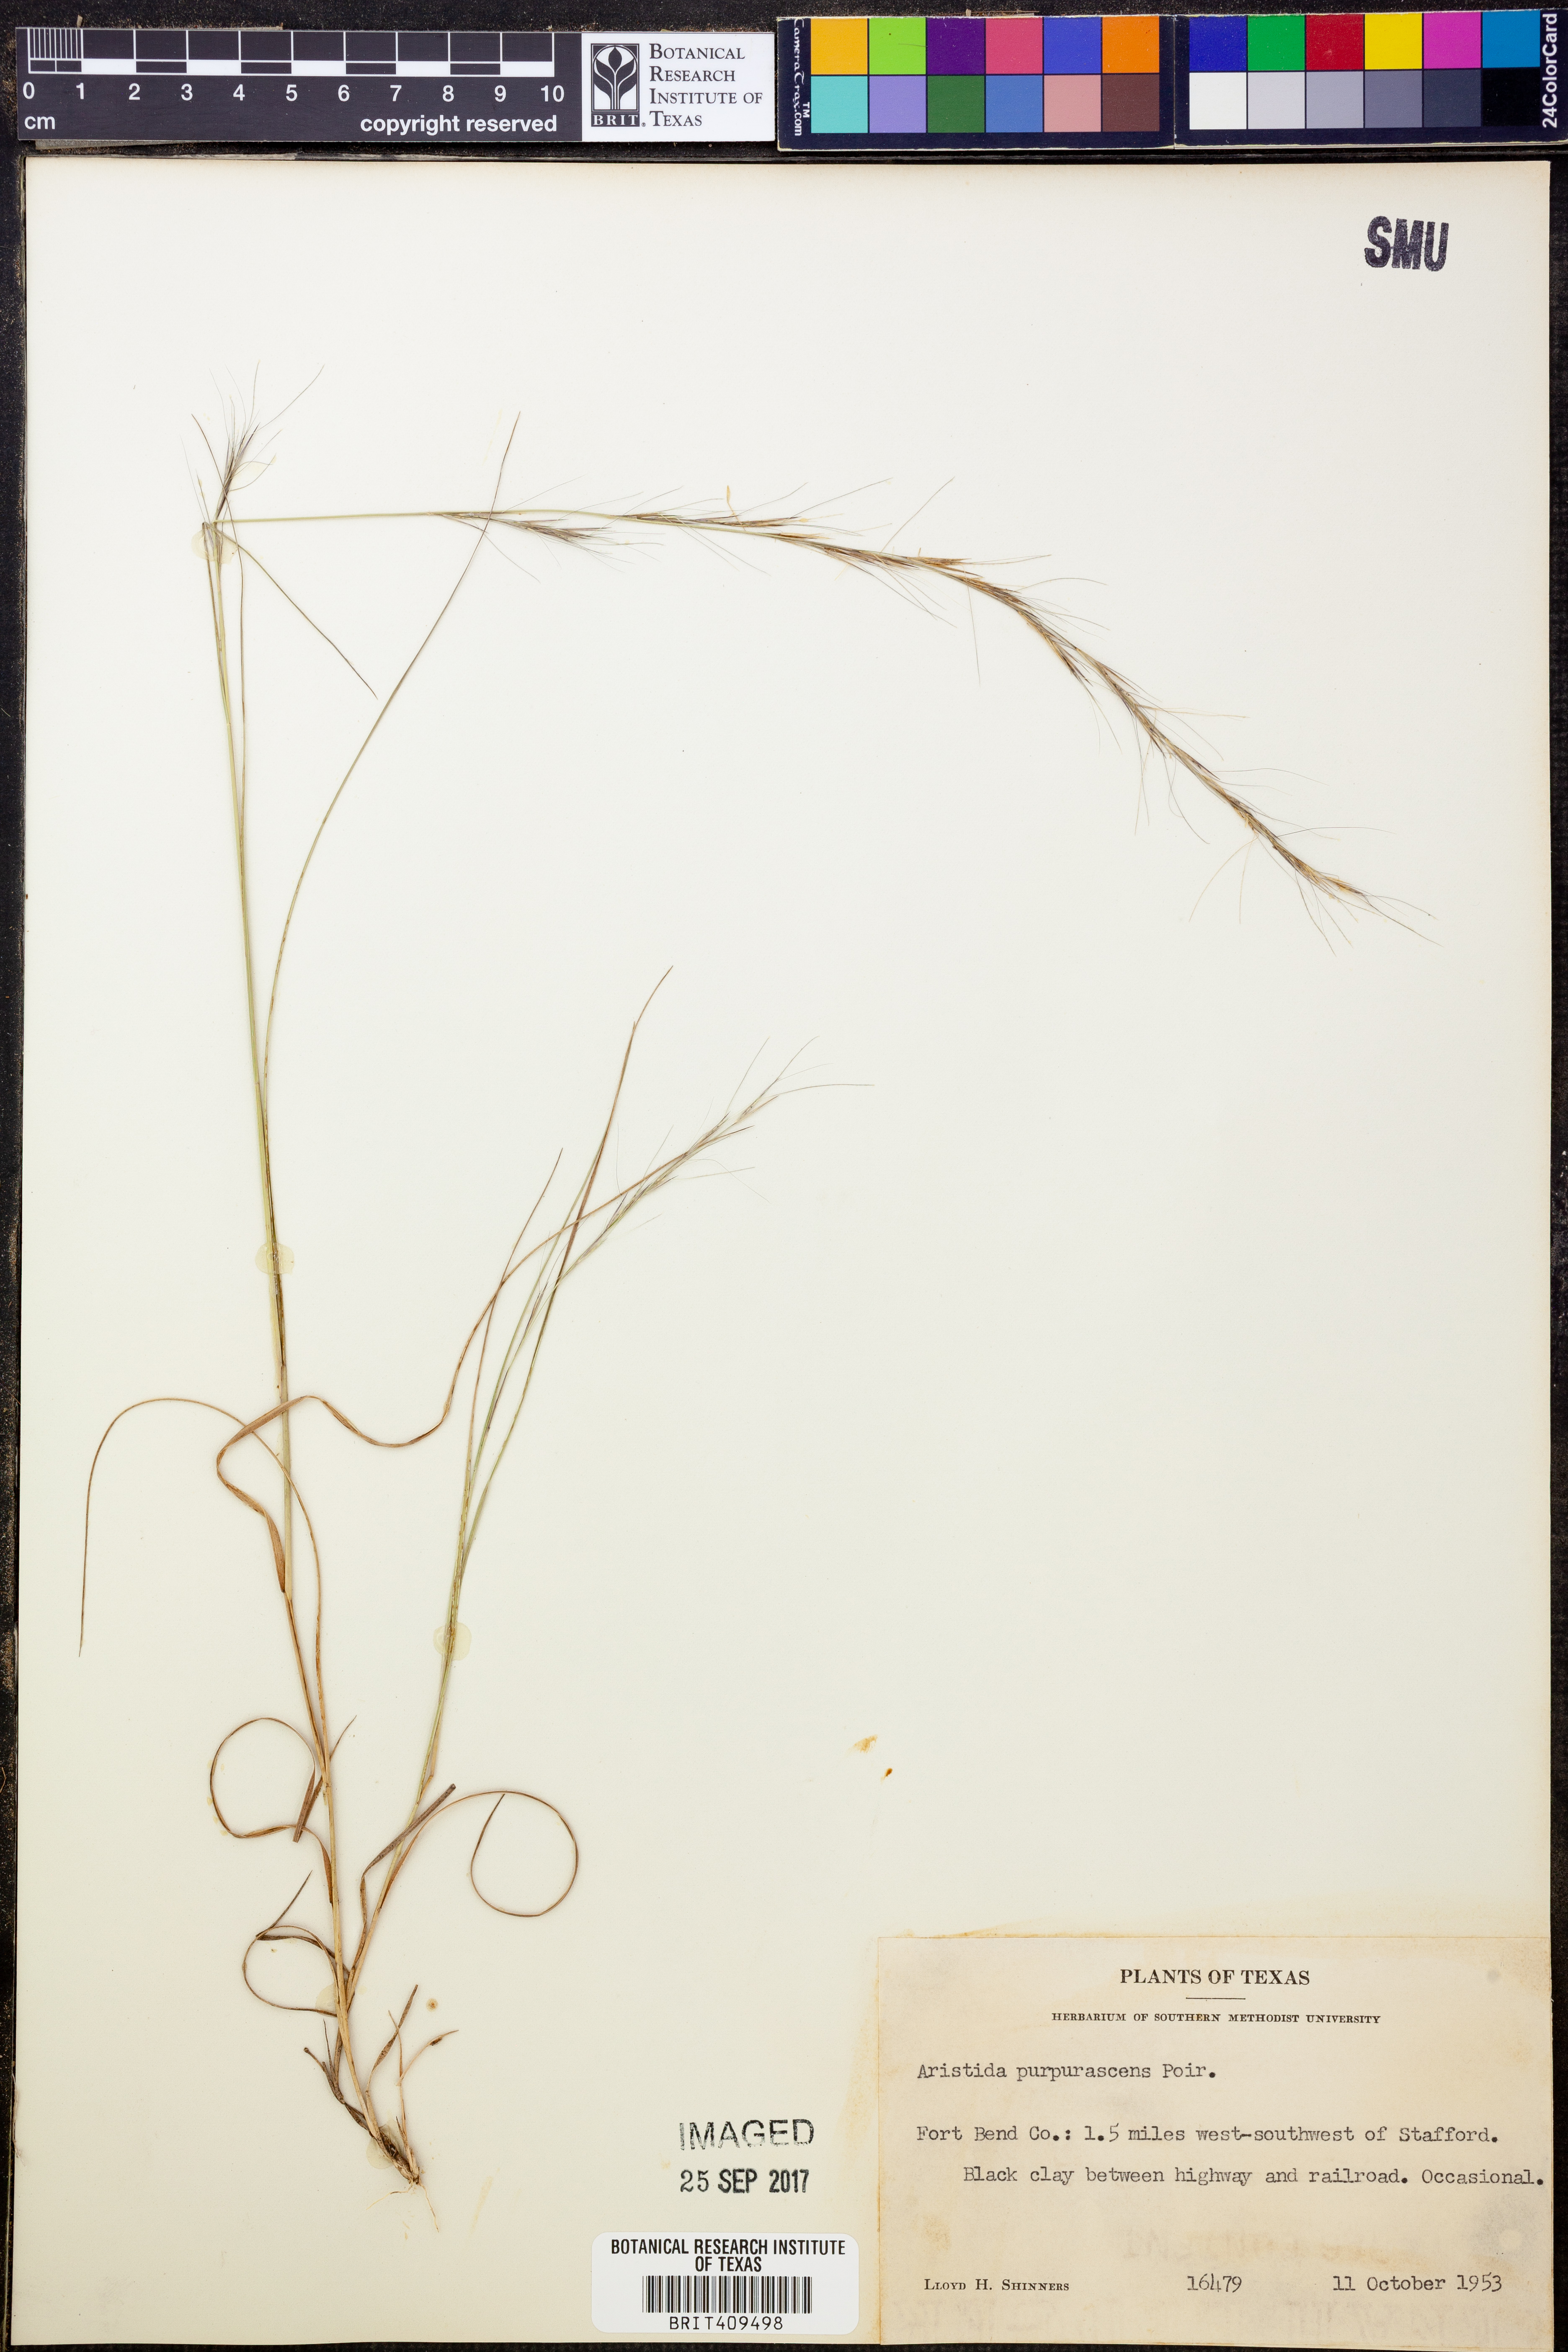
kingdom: Plantae
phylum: Tracheophyta
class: Liliopsida
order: Poales
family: Poaceae
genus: Aristida
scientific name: Aristida purpurascens
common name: Arrow-feather
